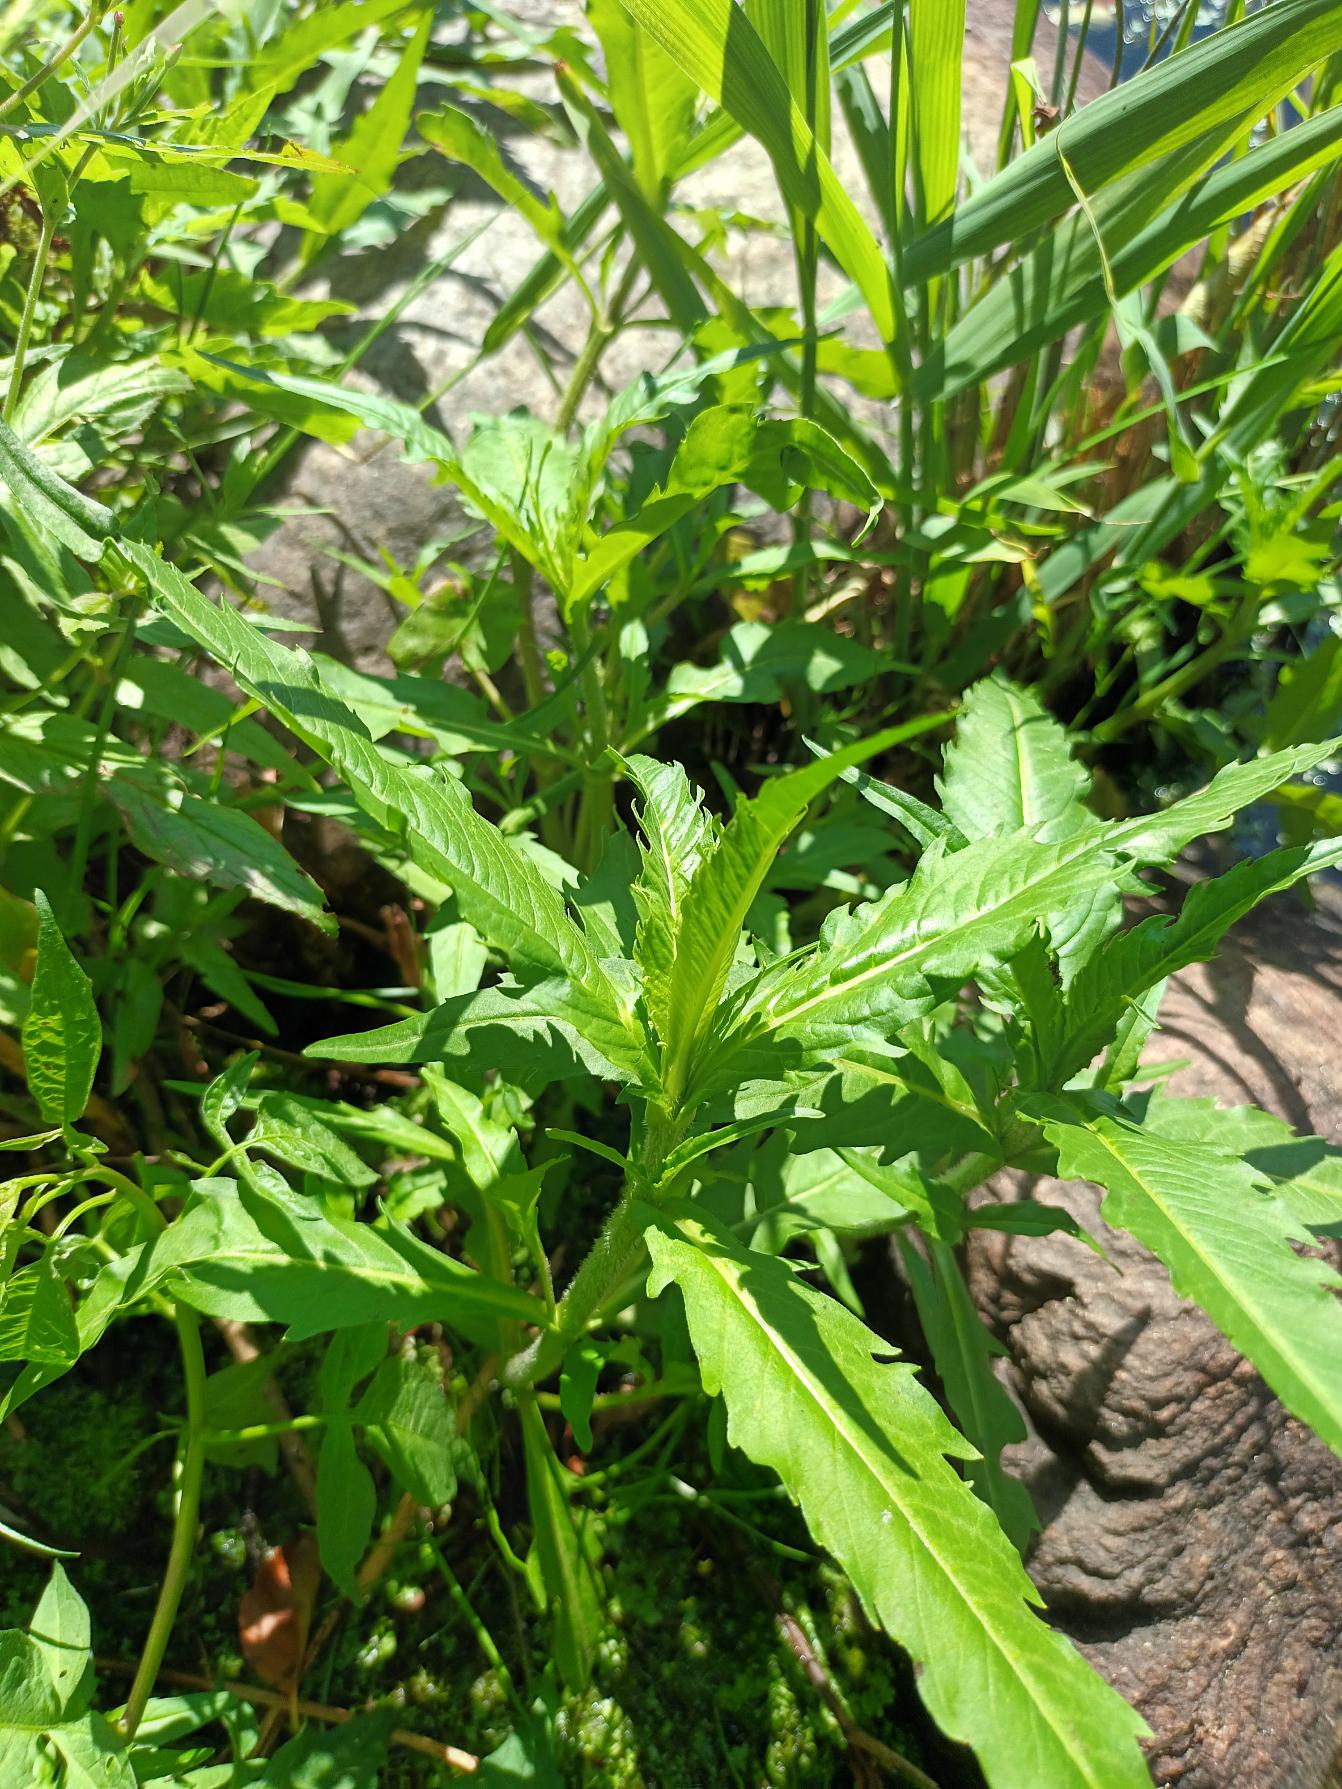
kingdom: Plantae
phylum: Tracheophyta
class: Magnoliopsida
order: Asterales
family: Asteraceae
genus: Bidens
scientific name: Bidens cernua
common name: Nikkende brøndsel
